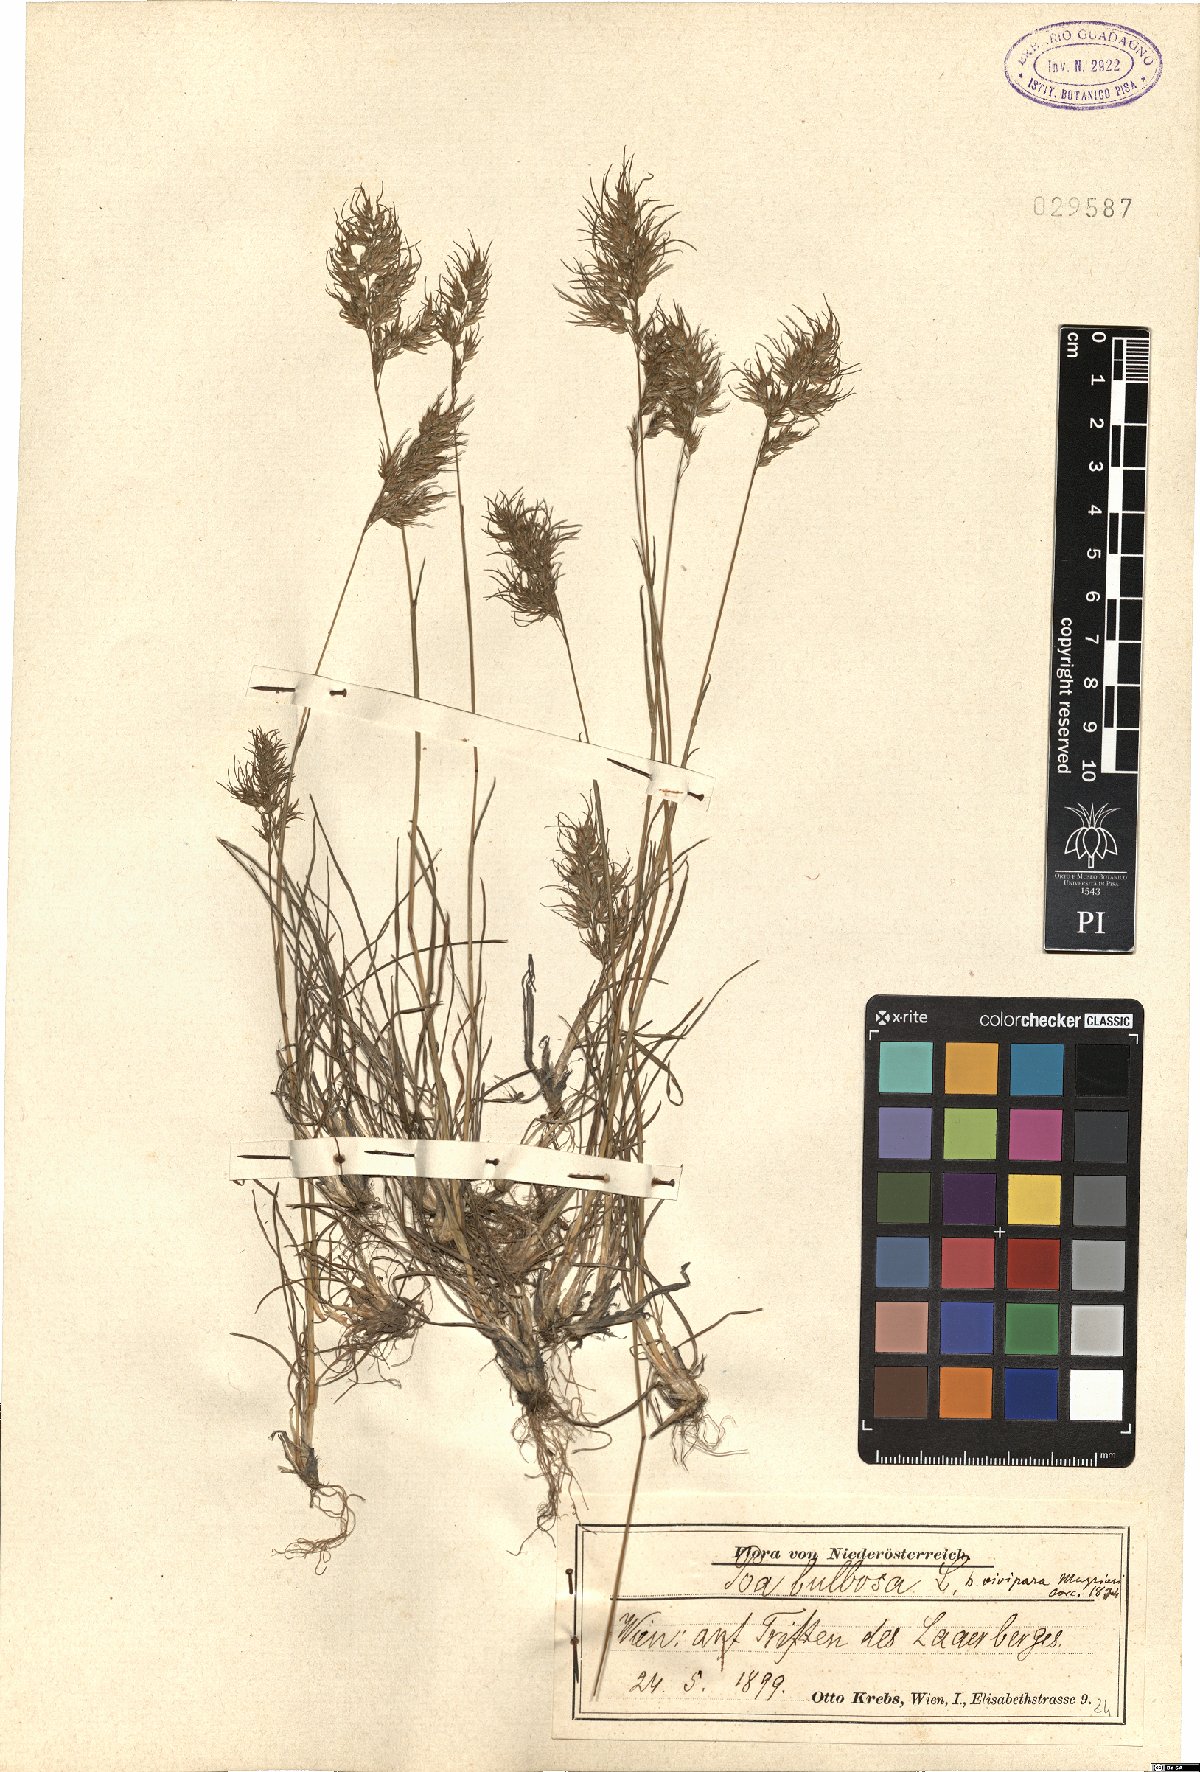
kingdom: Plantae
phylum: Tracheophyta
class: Liliopsida
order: Poales
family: Poaceae
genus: Poa
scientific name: Poa bulbosa
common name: Bulbous bluegrass
